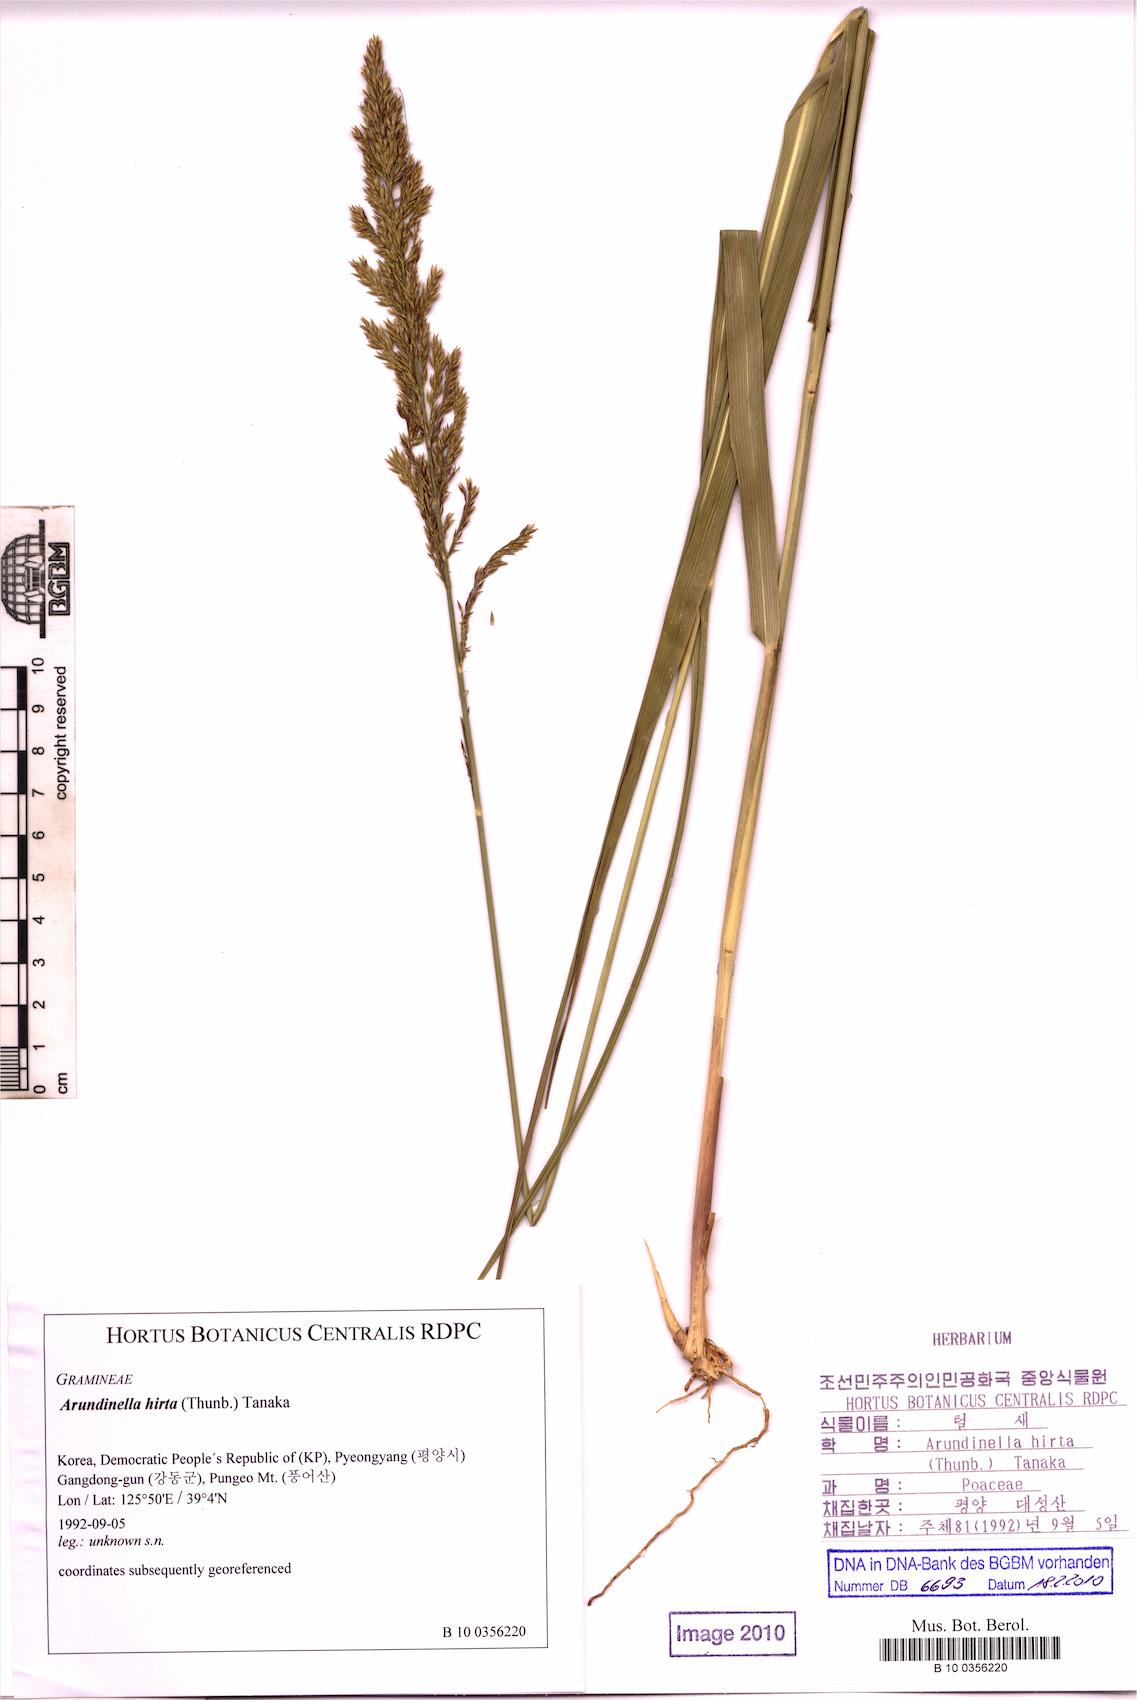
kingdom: Plantae
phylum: Tracheophyta
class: Liliopsida
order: Poales
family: Poaceae
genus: Arundinella
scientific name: Arundinella hirta
